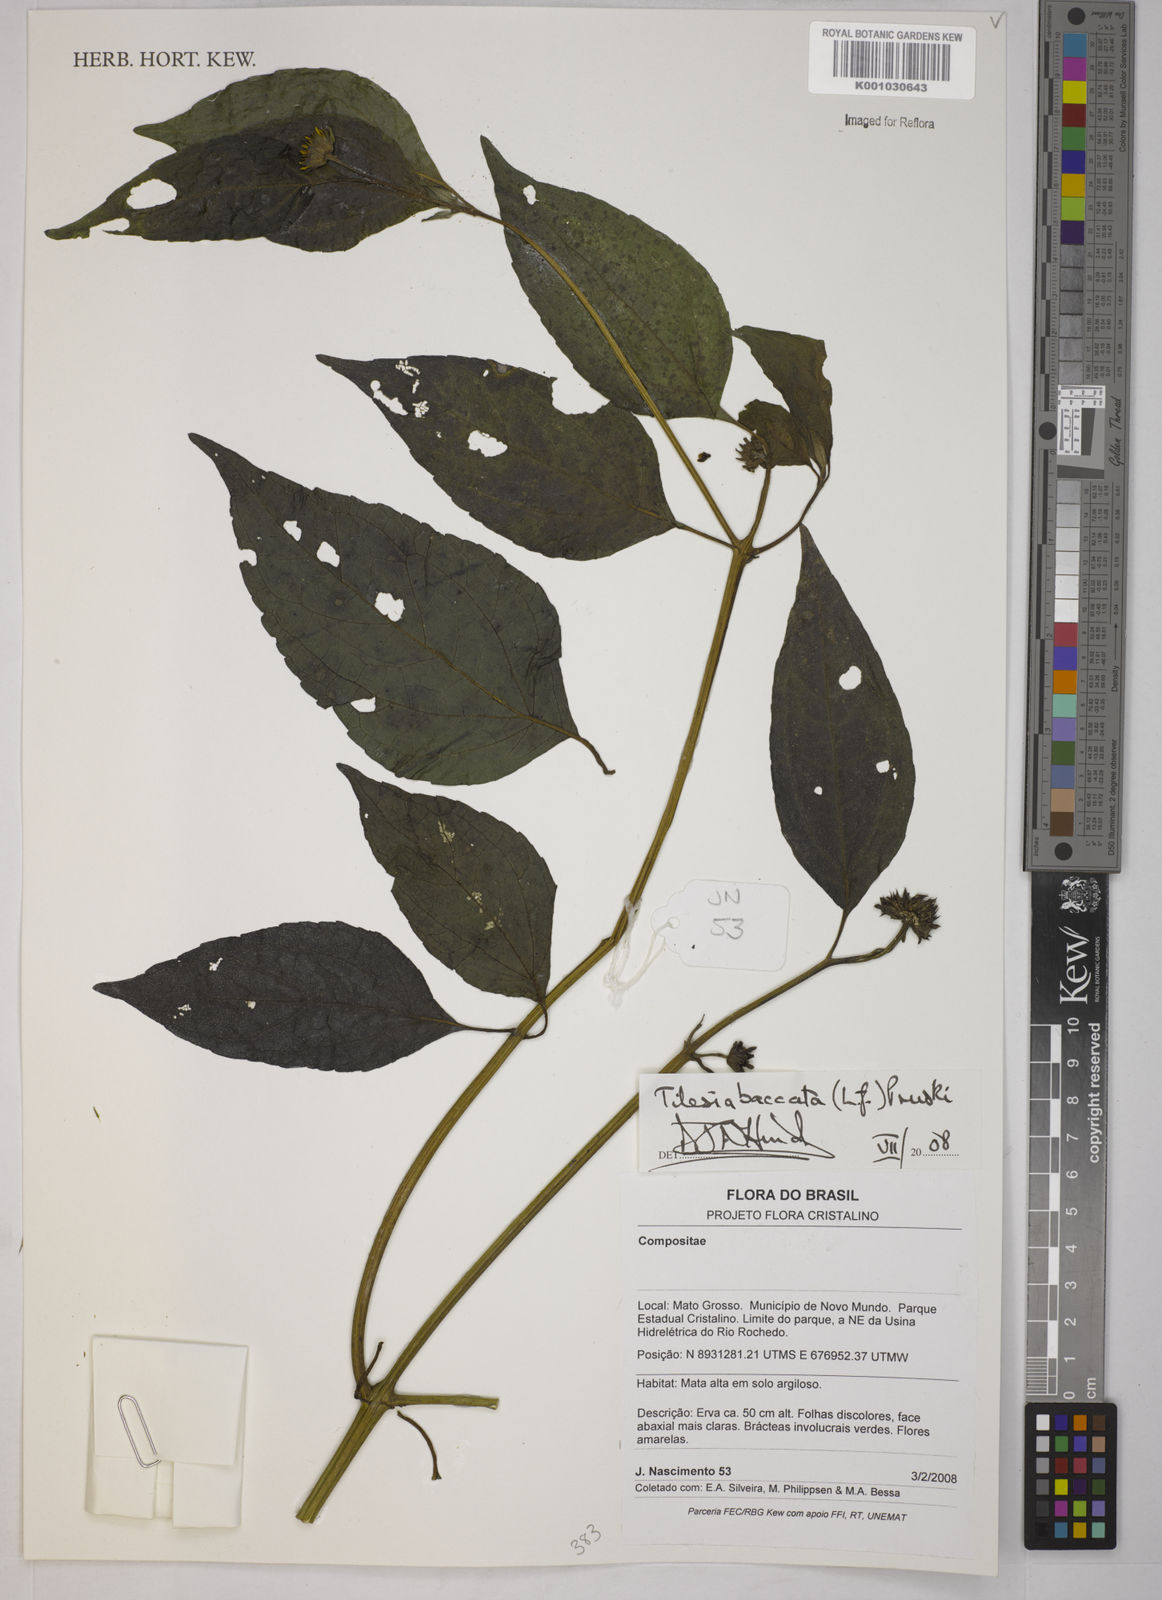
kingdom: Plantae
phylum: Tracheophyta
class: Magnoliopsida
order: Asterales
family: Asteraceae
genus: Tilesia
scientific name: Tilesia baccata
